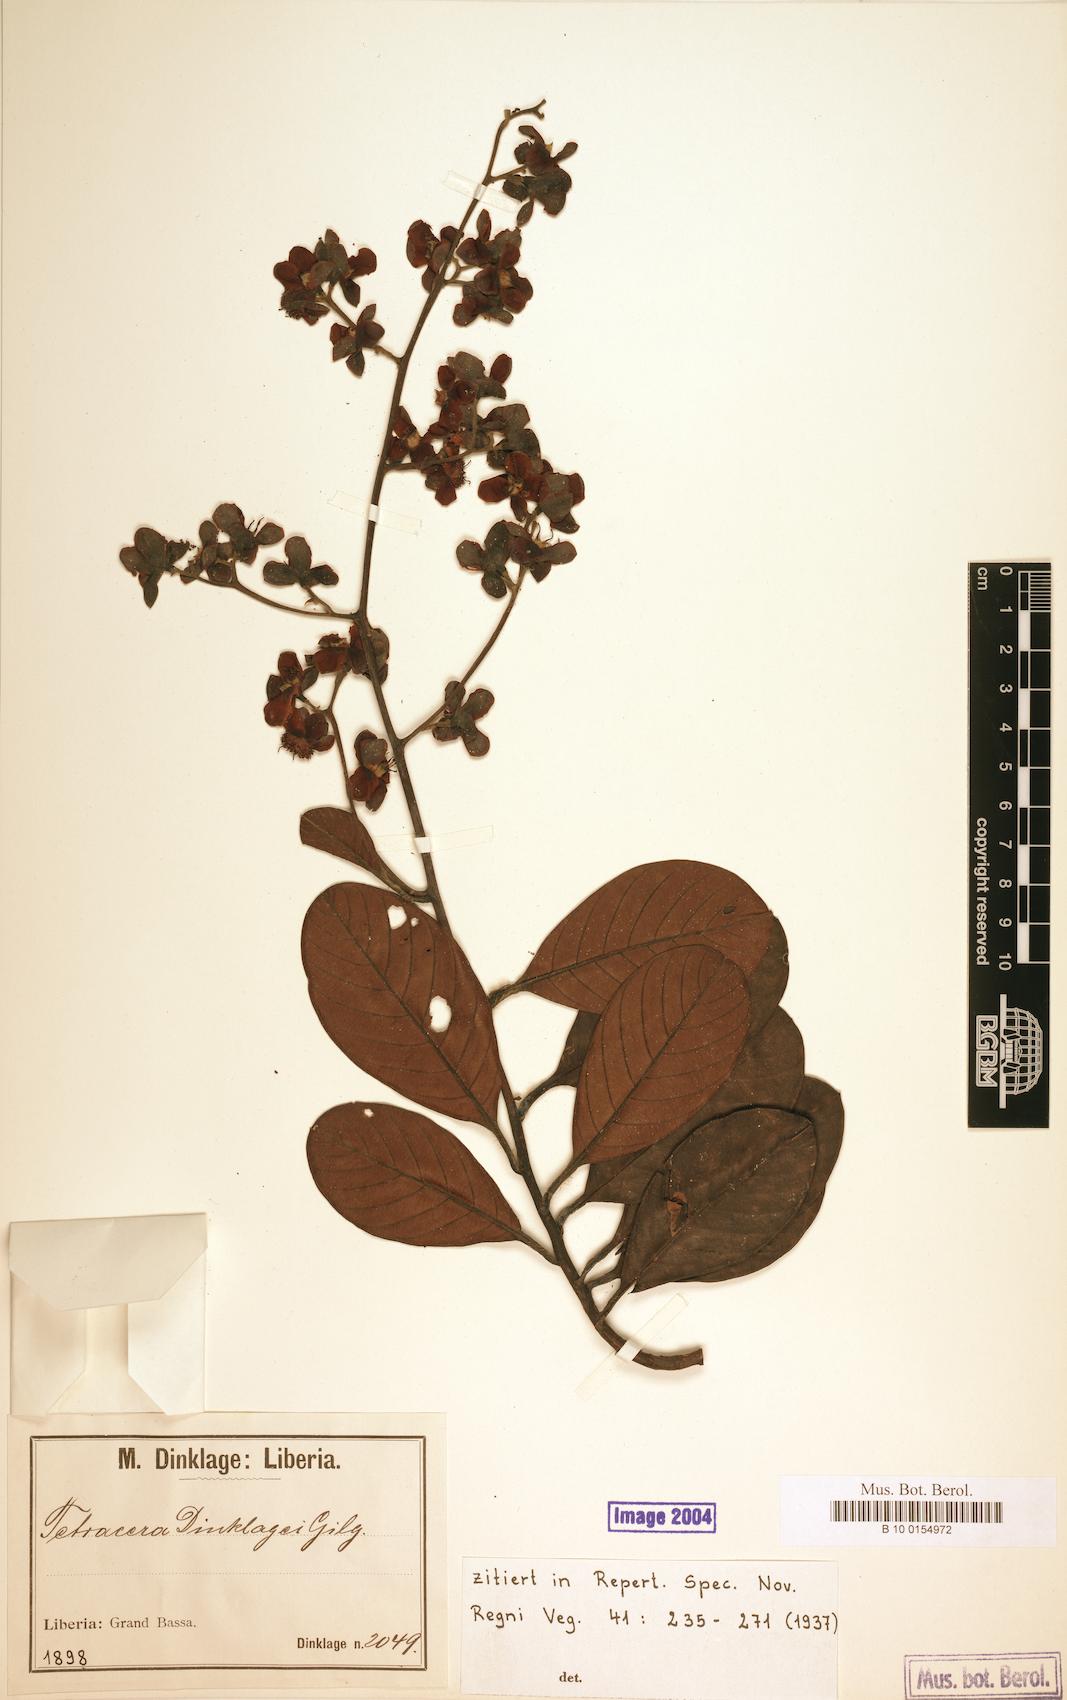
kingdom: Plantae
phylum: Tracheophyta
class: Magnoliopsida
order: Dilleniales
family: Dilleniaceae
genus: Tetracera
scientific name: Tetracera alnifolia
